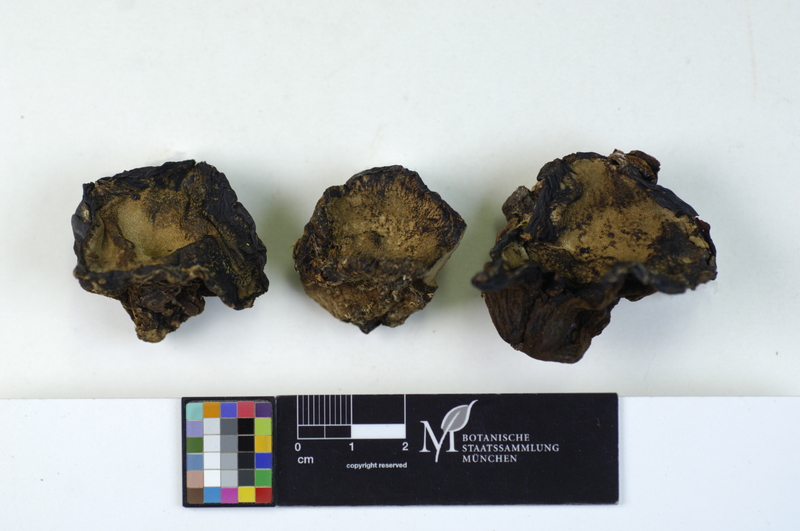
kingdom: Fungi
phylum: Basidiomycota
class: Agaricomycetes
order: Polyporales
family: Ischnodermataceae
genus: Ischnoderma
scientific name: Ischnoderma benzoinum
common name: Benzoin bracket
